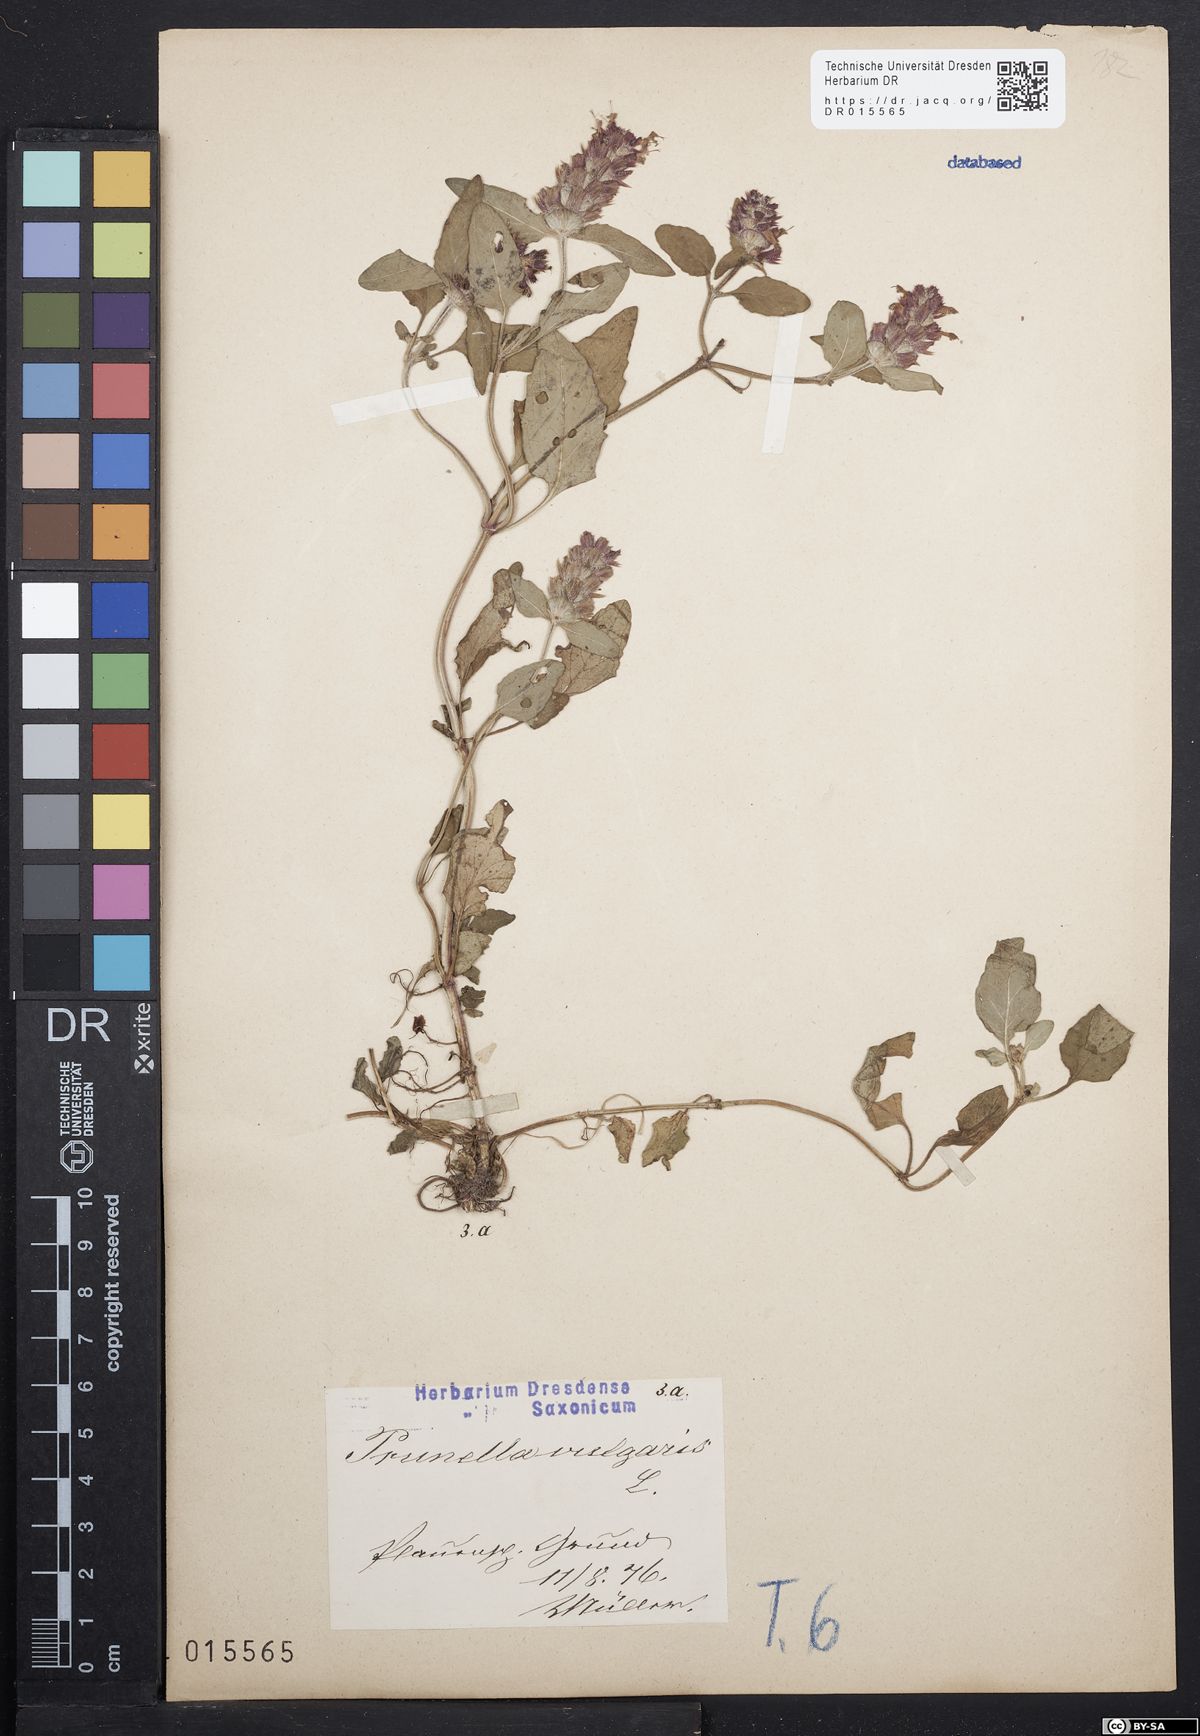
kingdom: Plantae
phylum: Tracheophyta
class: Magnoliopsida
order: Lamiales
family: Lamiaceae
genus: Prunella
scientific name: Prunella vulgaris
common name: Heal-all
